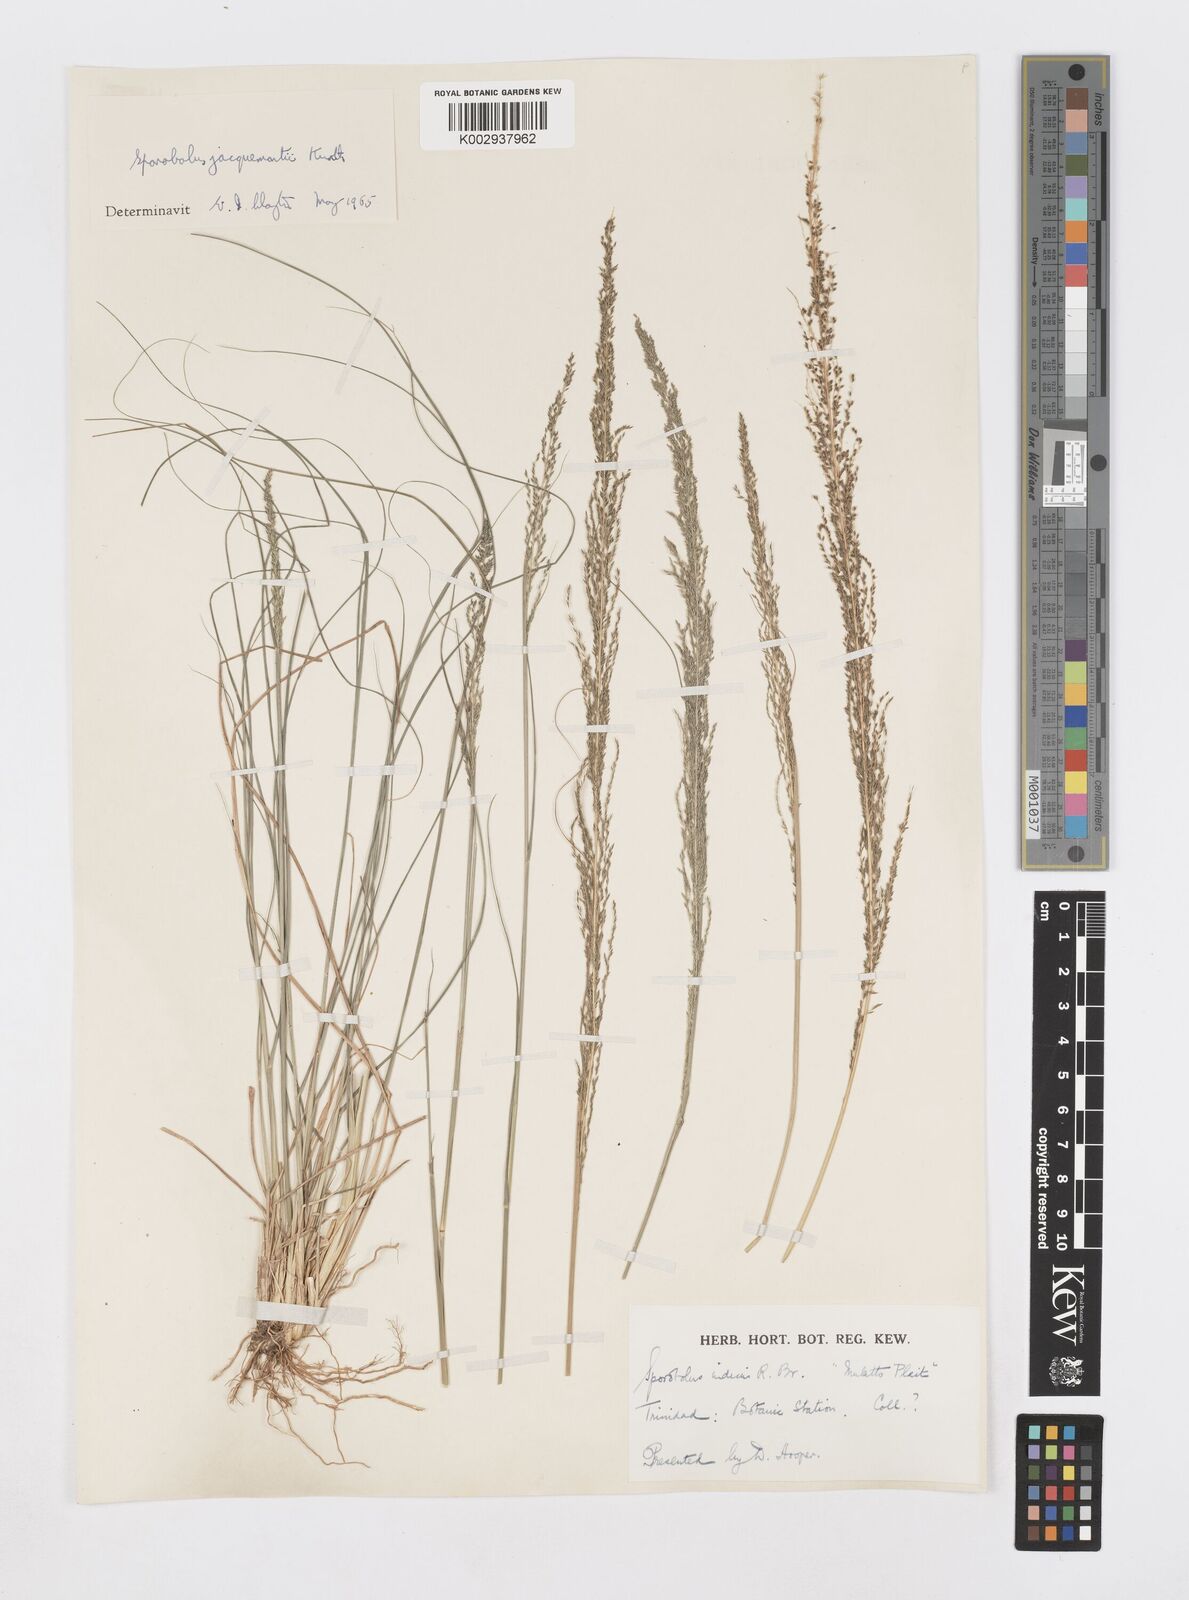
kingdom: Plantae
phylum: Tracheophyta
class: Liliopsida
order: Poales
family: Poaceae
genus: Sporobolus
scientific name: Sporobolus pyramidalis
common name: West indian dropseed
